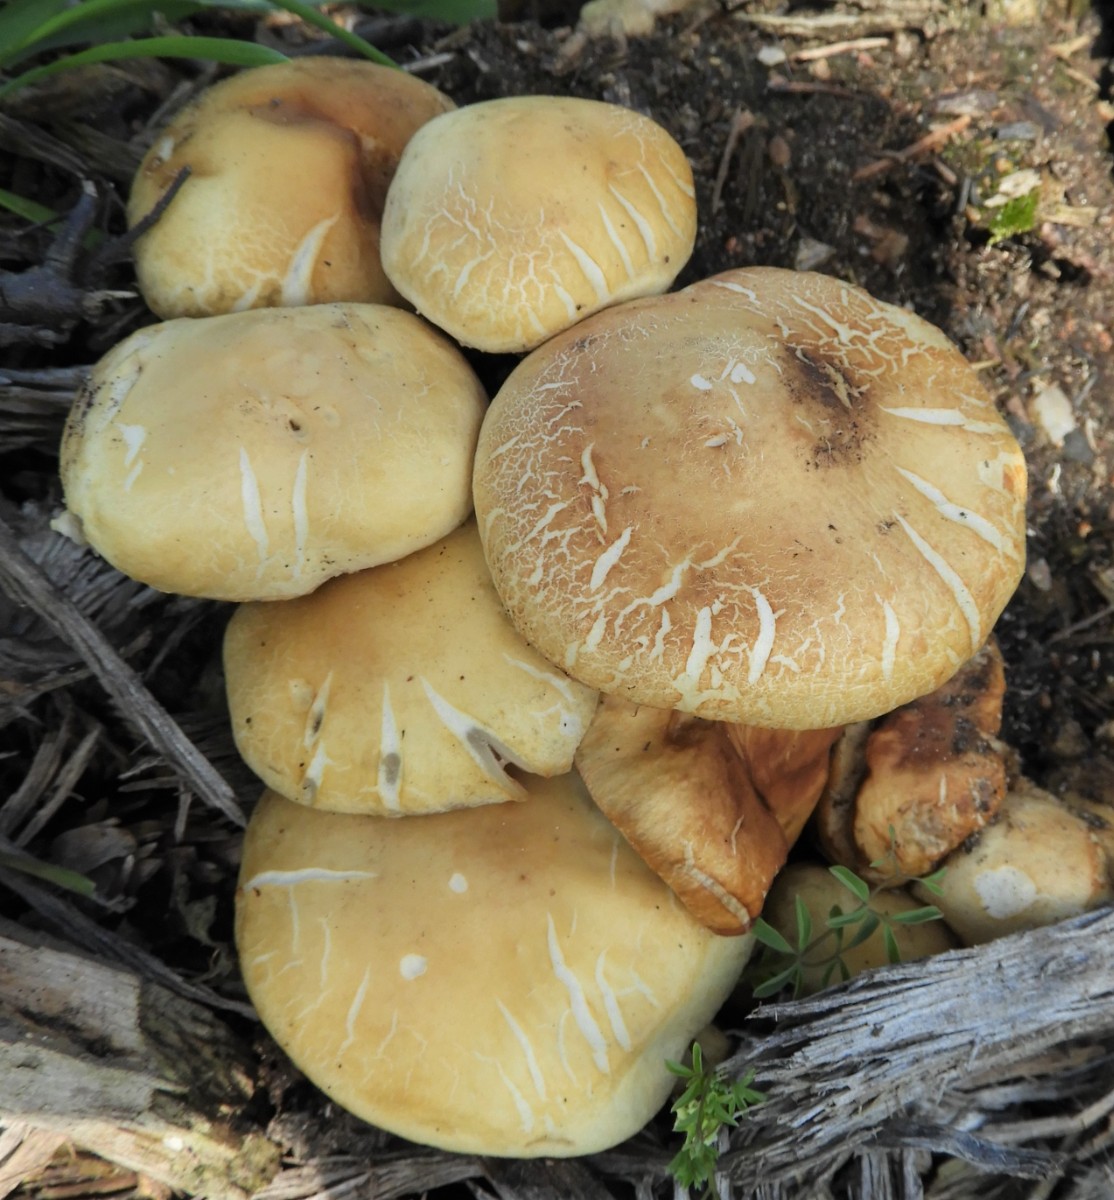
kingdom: Fungi
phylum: Basidiomycota
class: Agaricomycetes
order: Agaricales
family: Strophariaceae
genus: Agrocybe
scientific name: Agrocybe praecox
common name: tidlig agerhat
